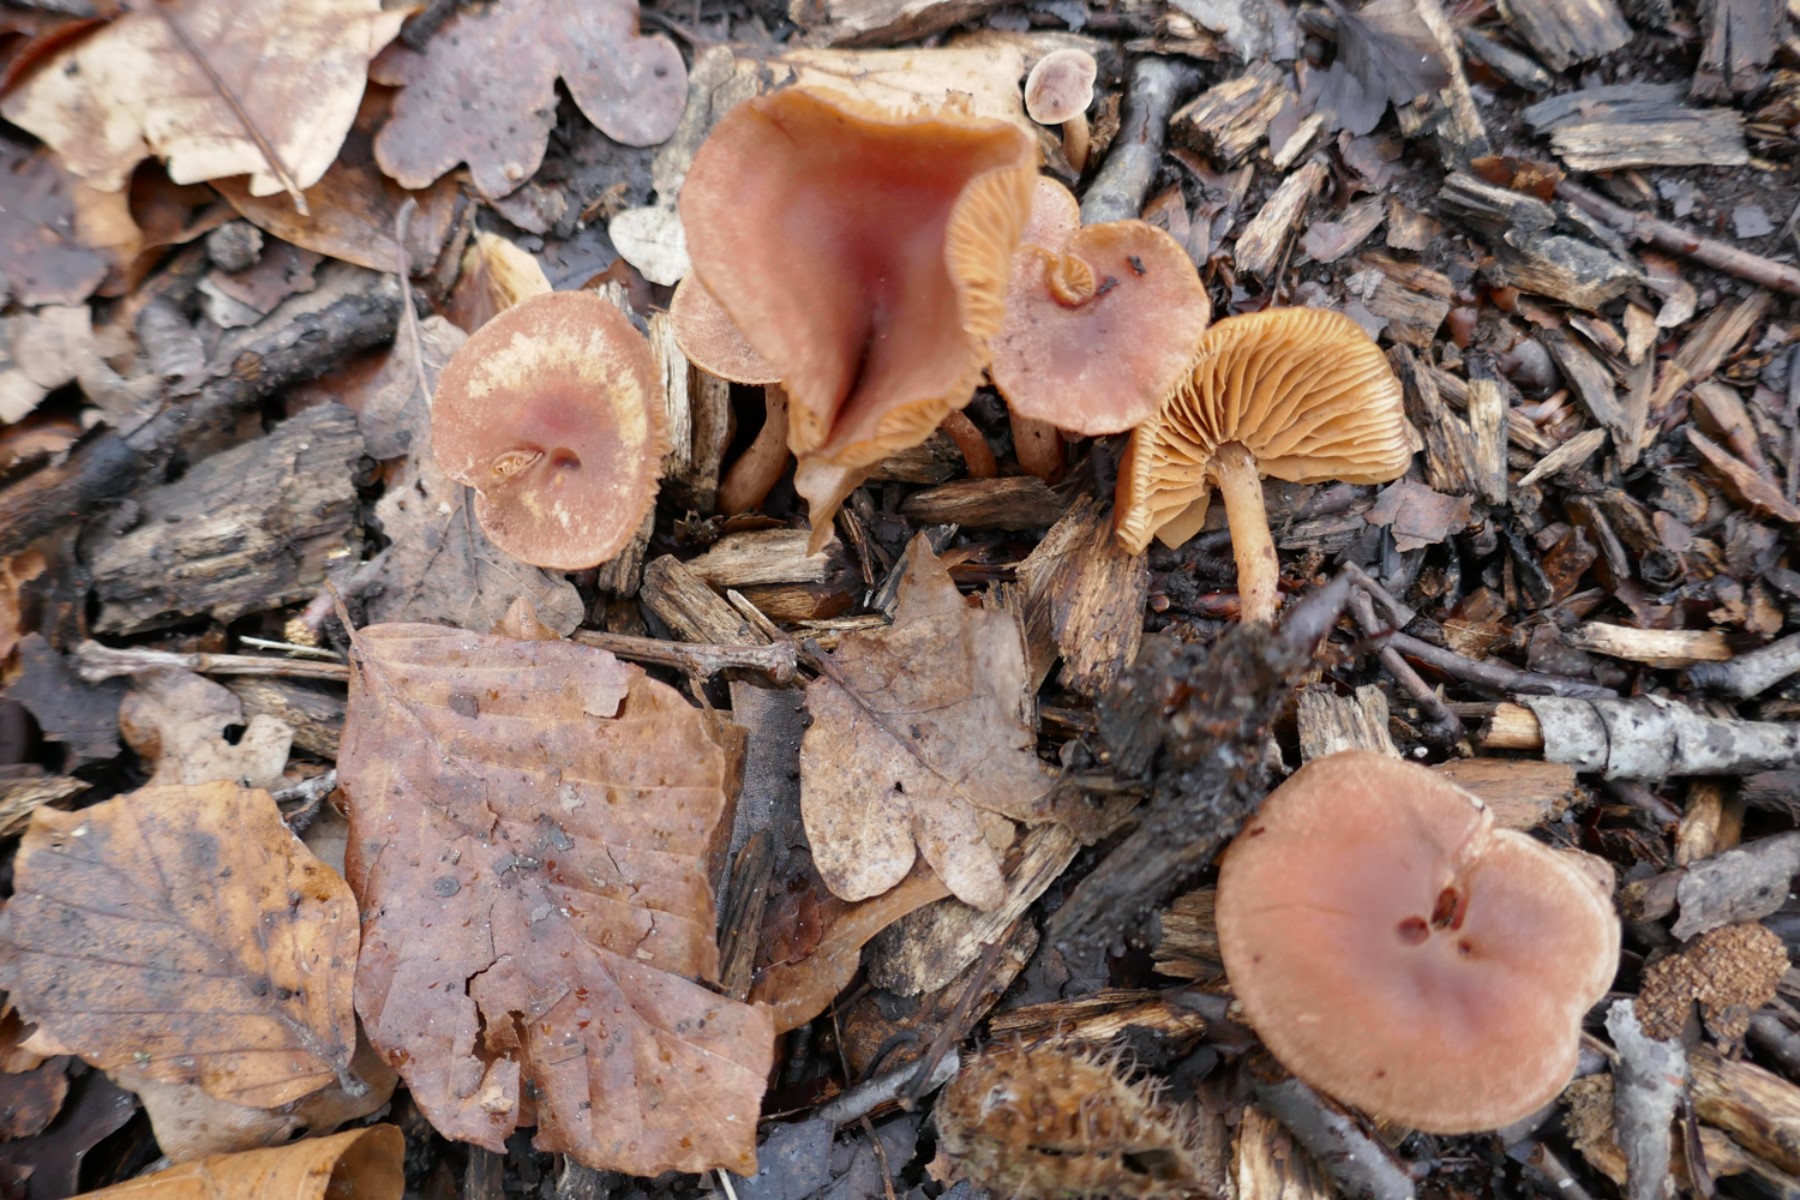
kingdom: Fungi
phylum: Basidiomycota
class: Agaricomycetes
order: Agaricales
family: Tubariaceae
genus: Tubaria
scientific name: Tubaria furfuracea
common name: kliddet fnughat
